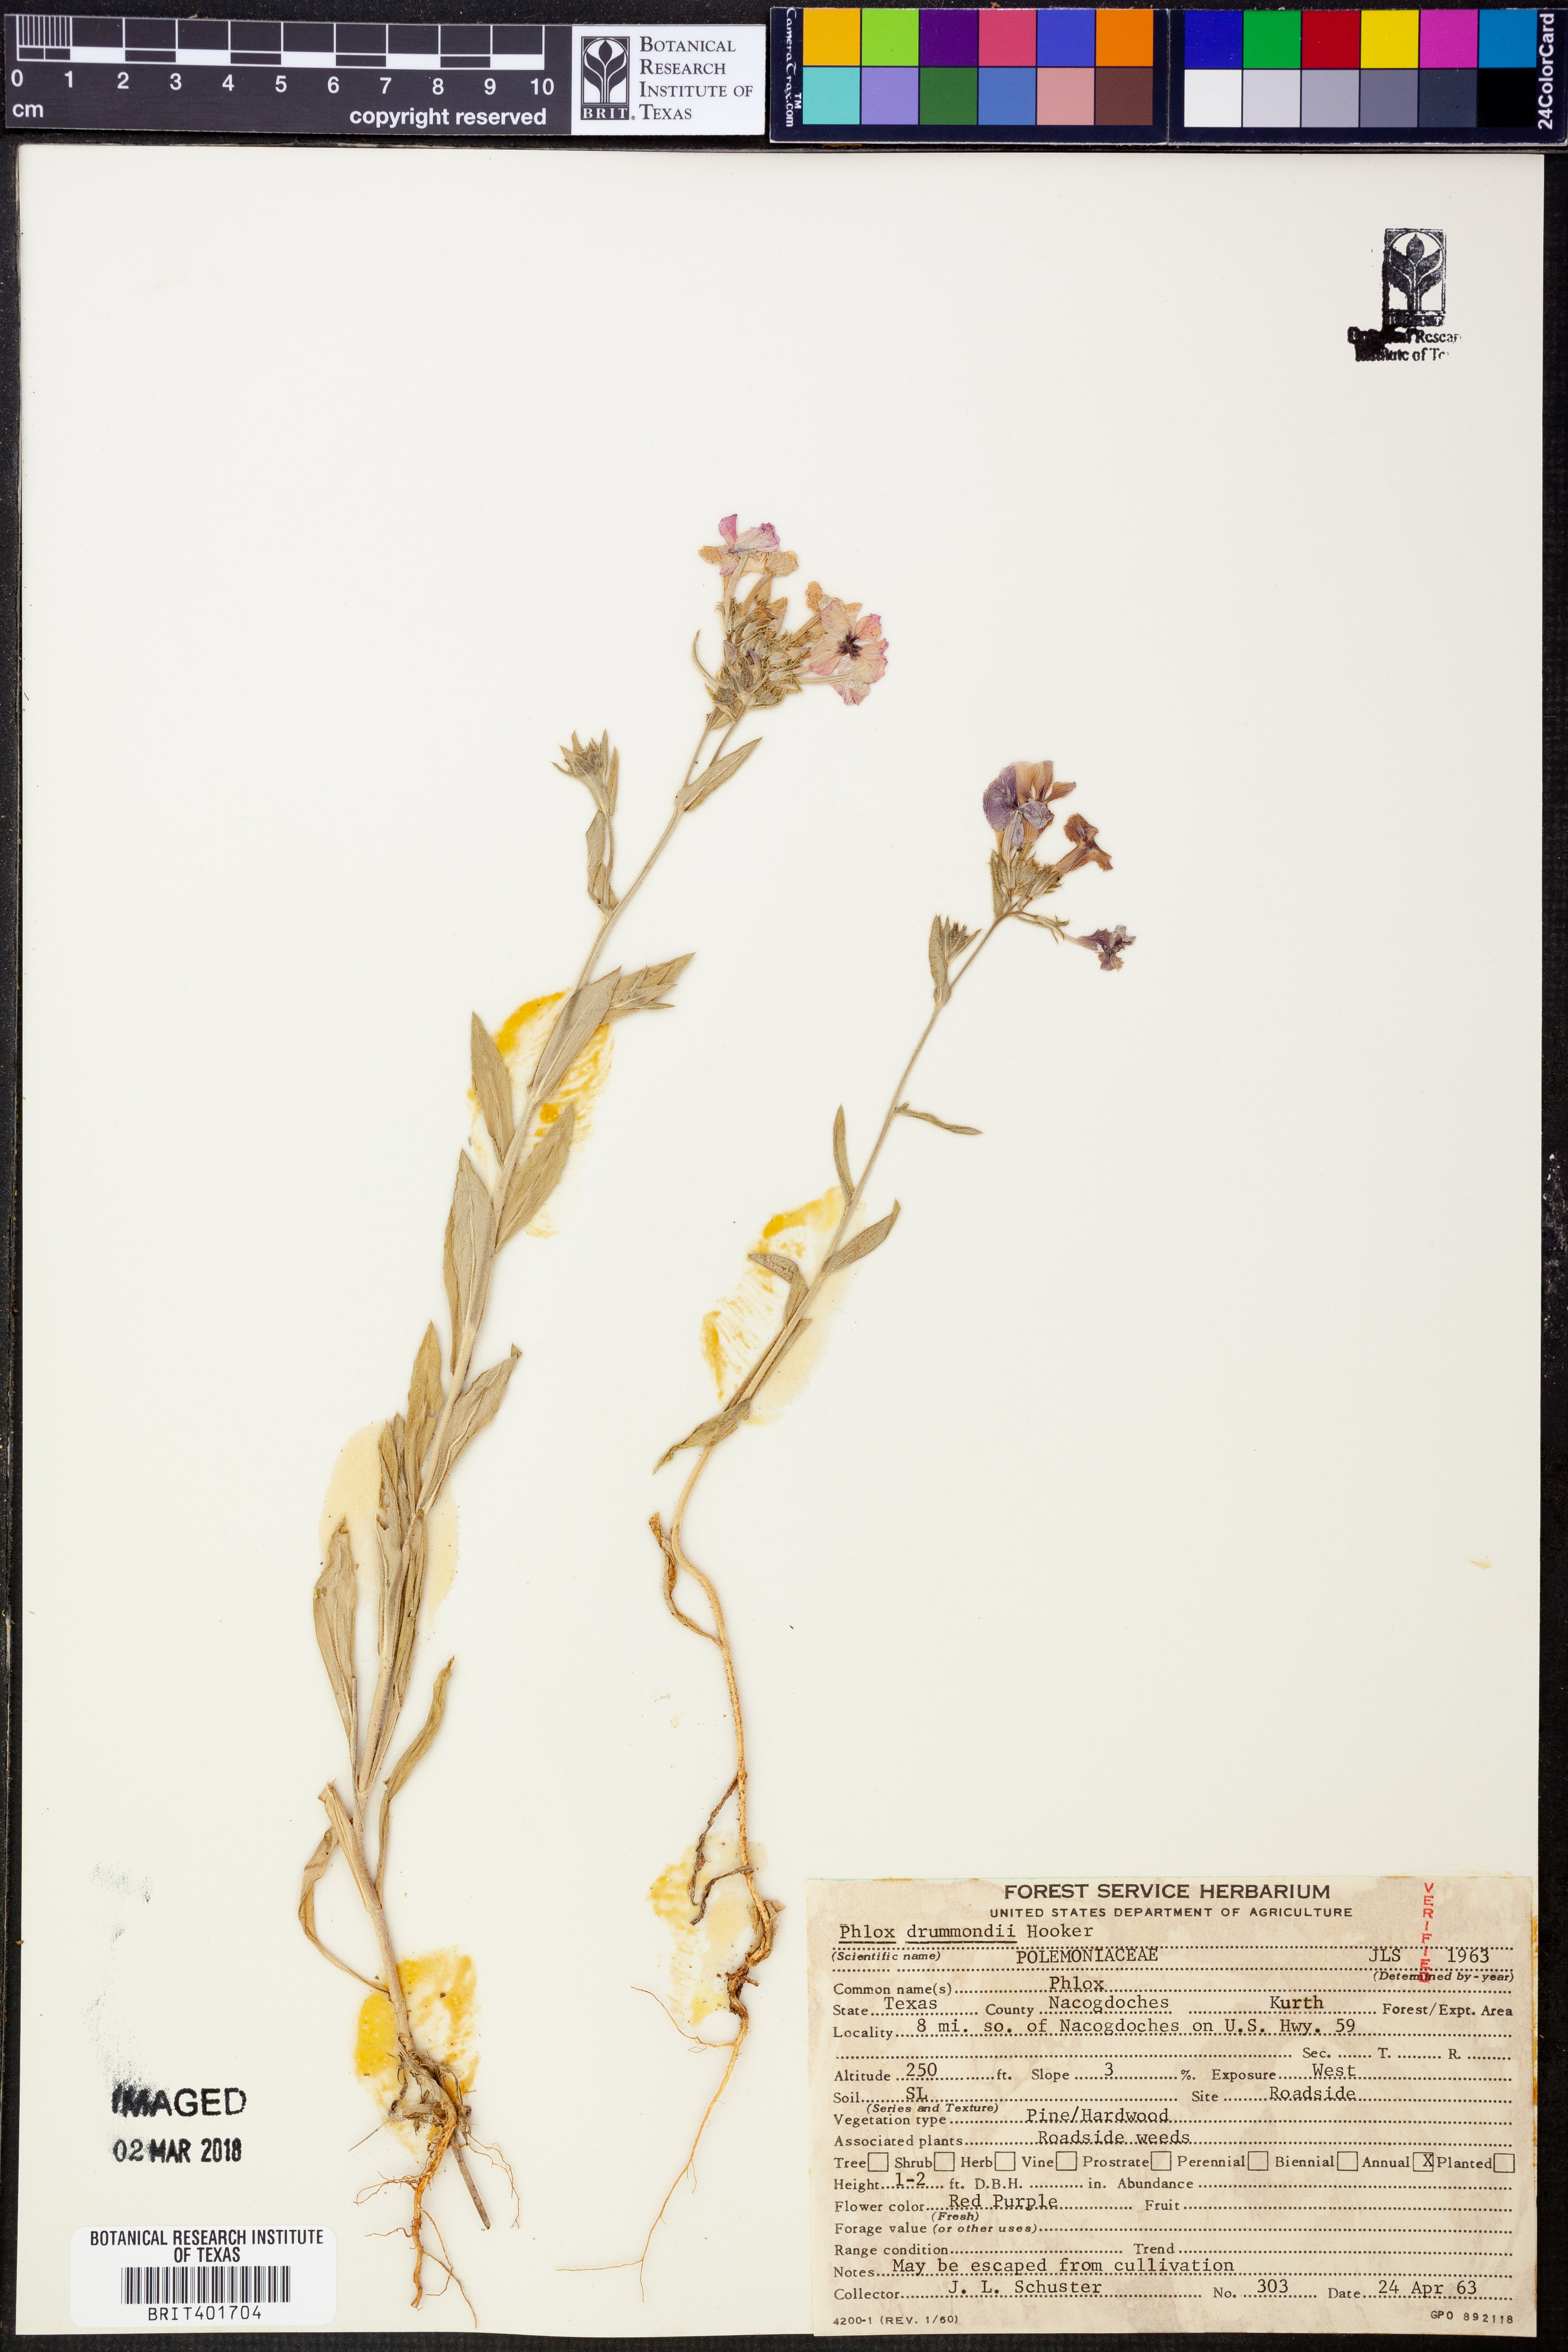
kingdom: Plantae
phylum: Tracheophyta
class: Magnoliopsida
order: Ericales
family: Polemoniaceae
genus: Phlox
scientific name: Phlox drummondii
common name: Drummond's phlox
